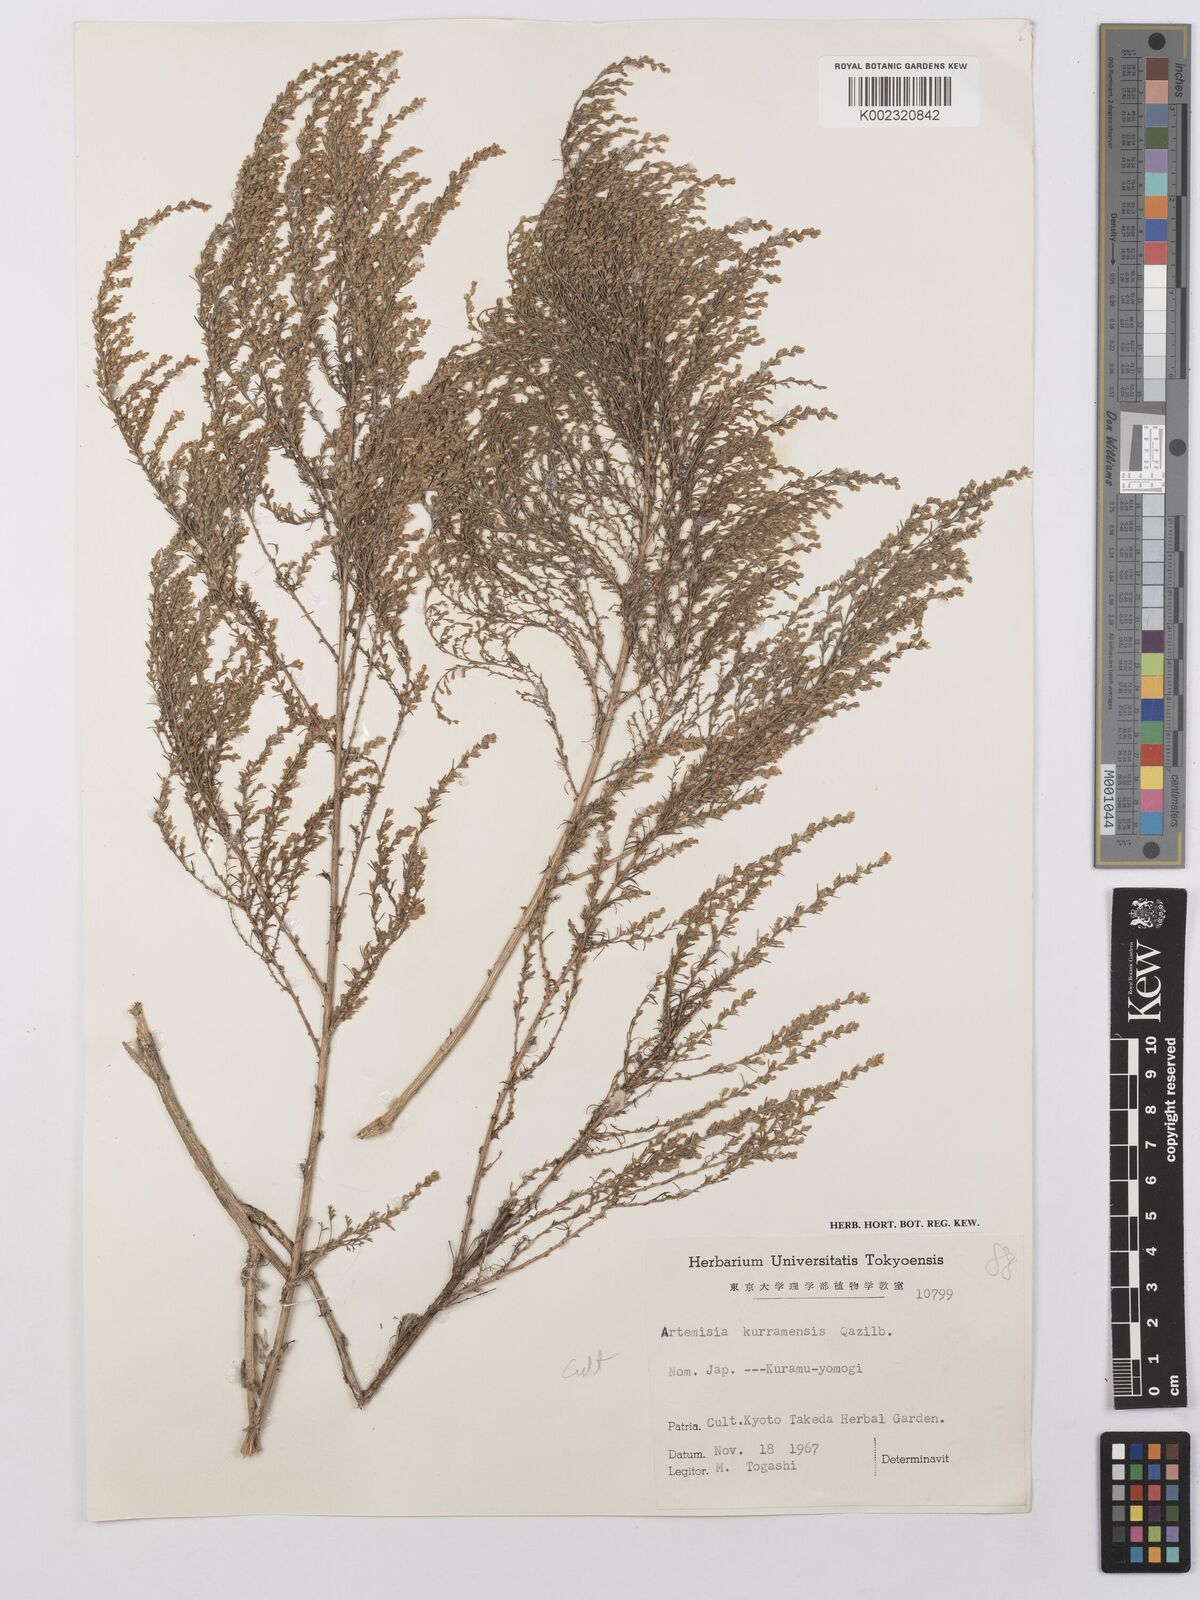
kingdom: Plantae
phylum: Tracheophyta
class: Magnoliopsida
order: Asterales
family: Asteraceae
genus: Artemisia
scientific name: Artemisia kurramensis
